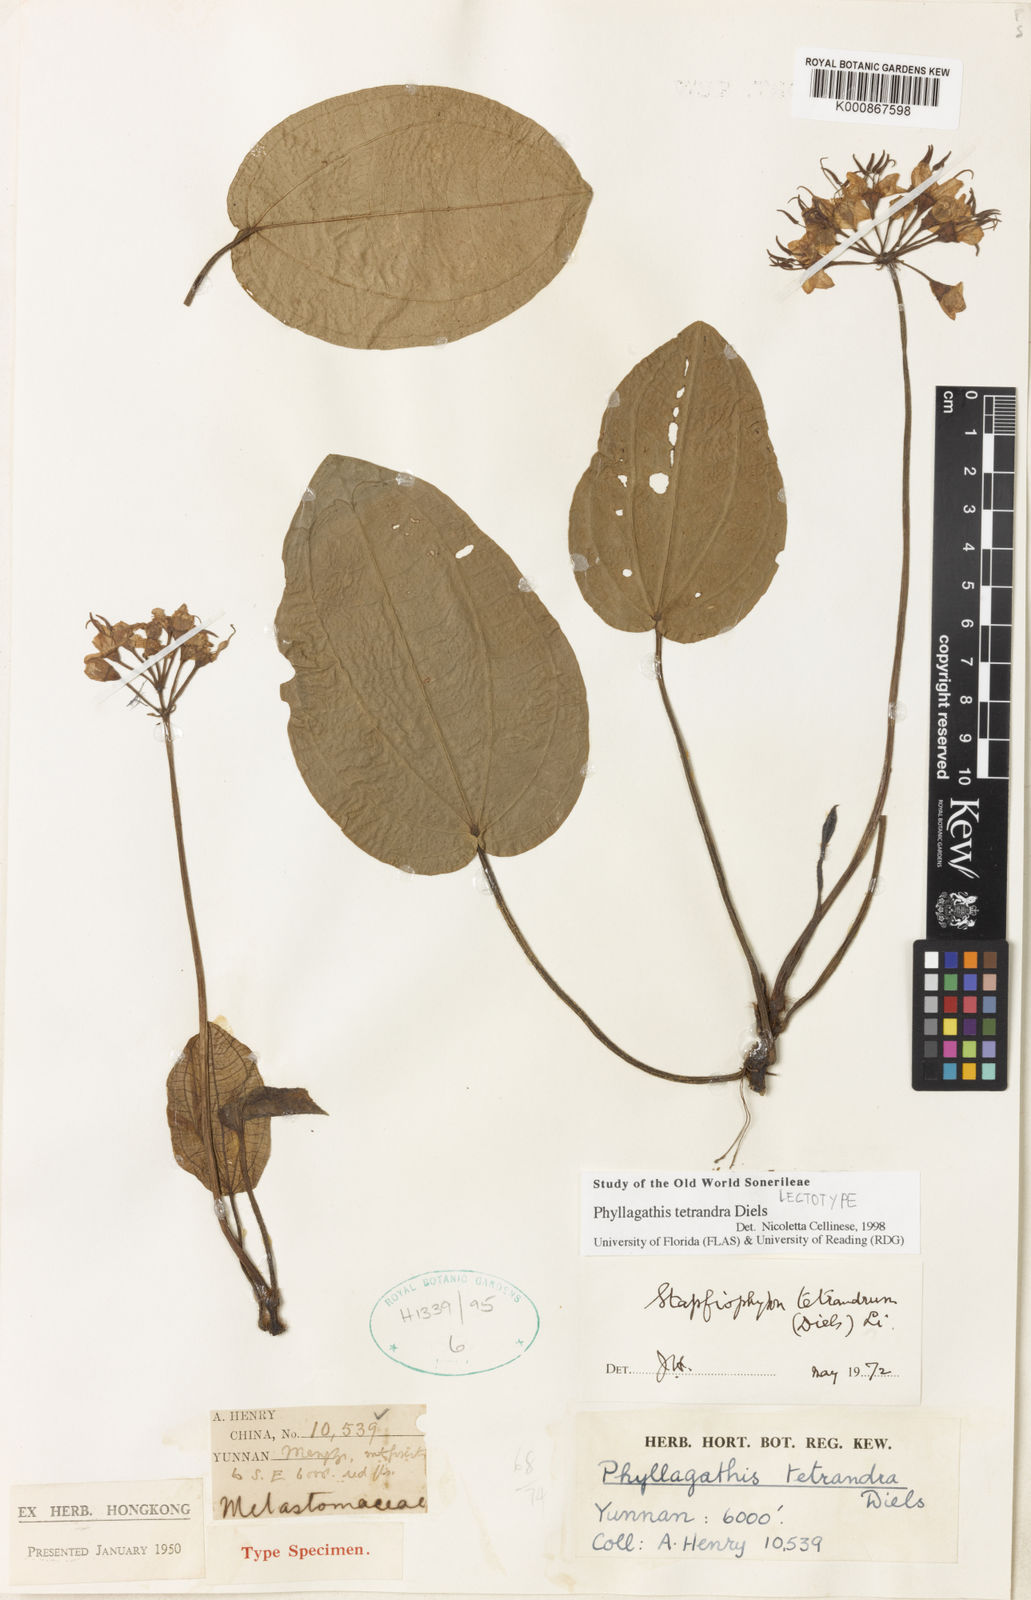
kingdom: Plantae
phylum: Tracheophyta
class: Magnoliopsida
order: Myrtales
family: Melastomataceae
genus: Phyllagathis
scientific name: Phyllagathis tetrandra
